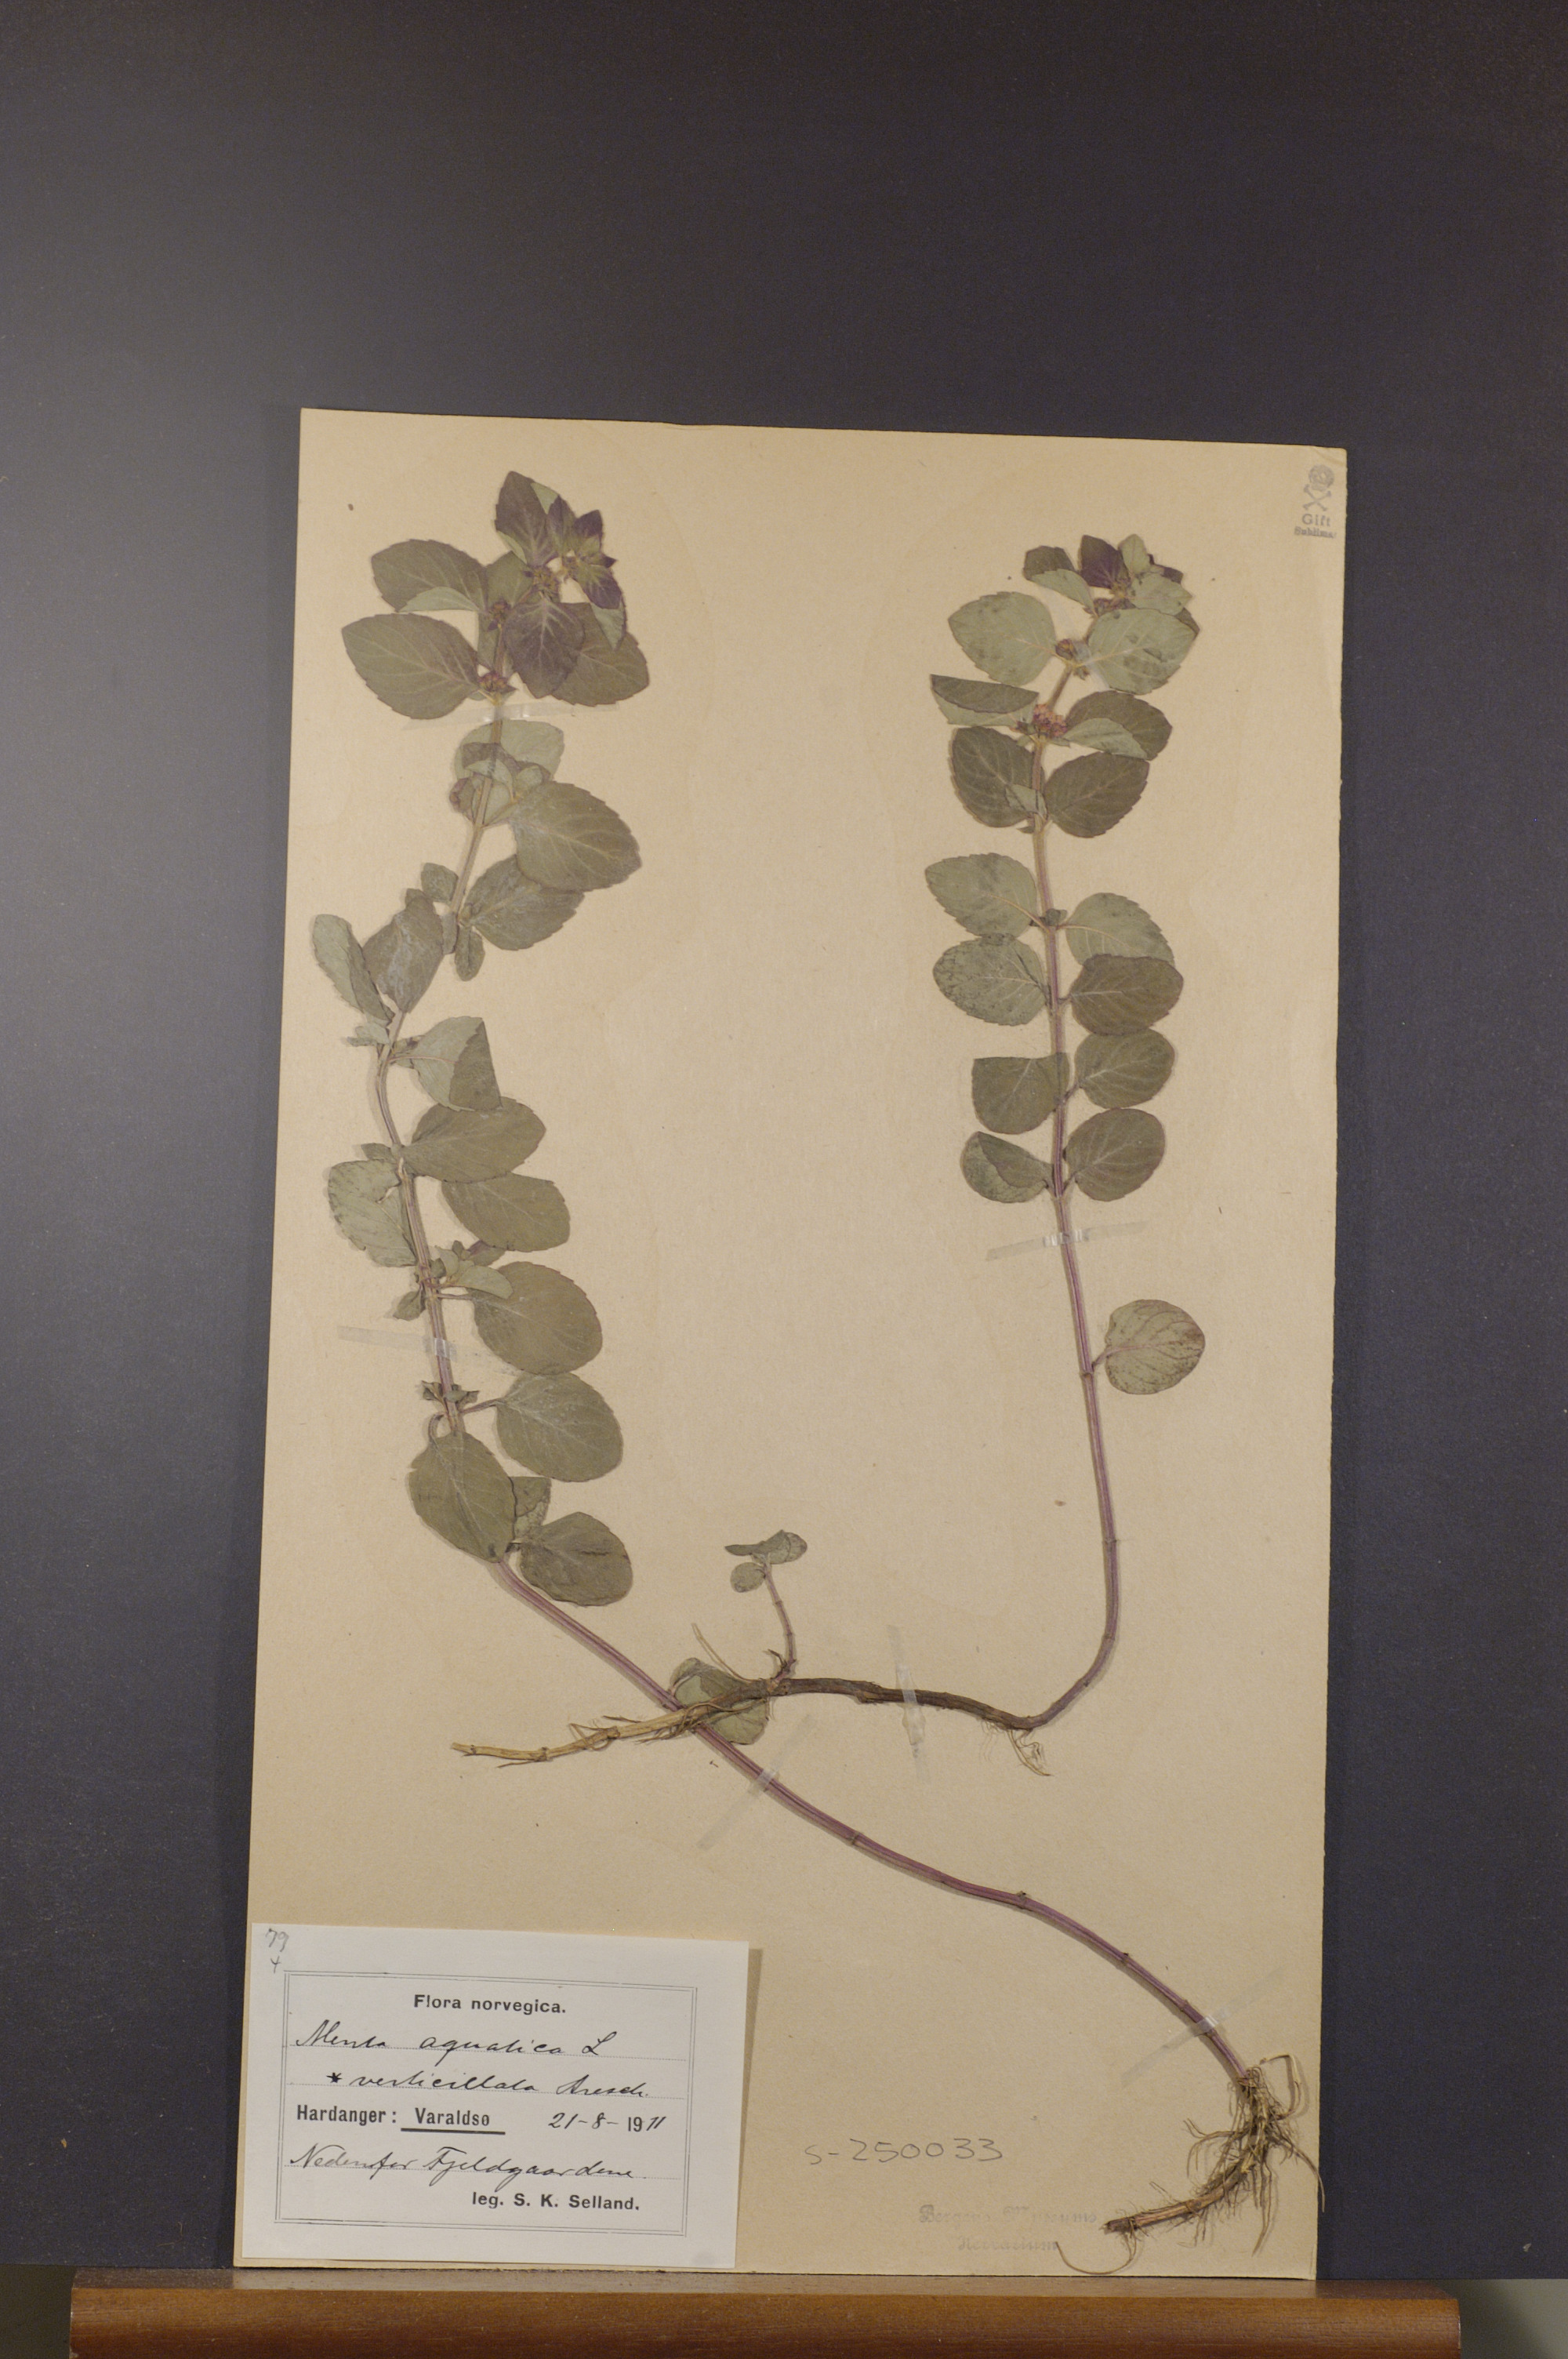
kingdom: Plantae
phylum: Tracheophyta
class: Magnoliopsida
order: Lamiales
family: Lamiaceae
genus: Mentha
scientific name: Mentha aquatica
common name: Water mint
